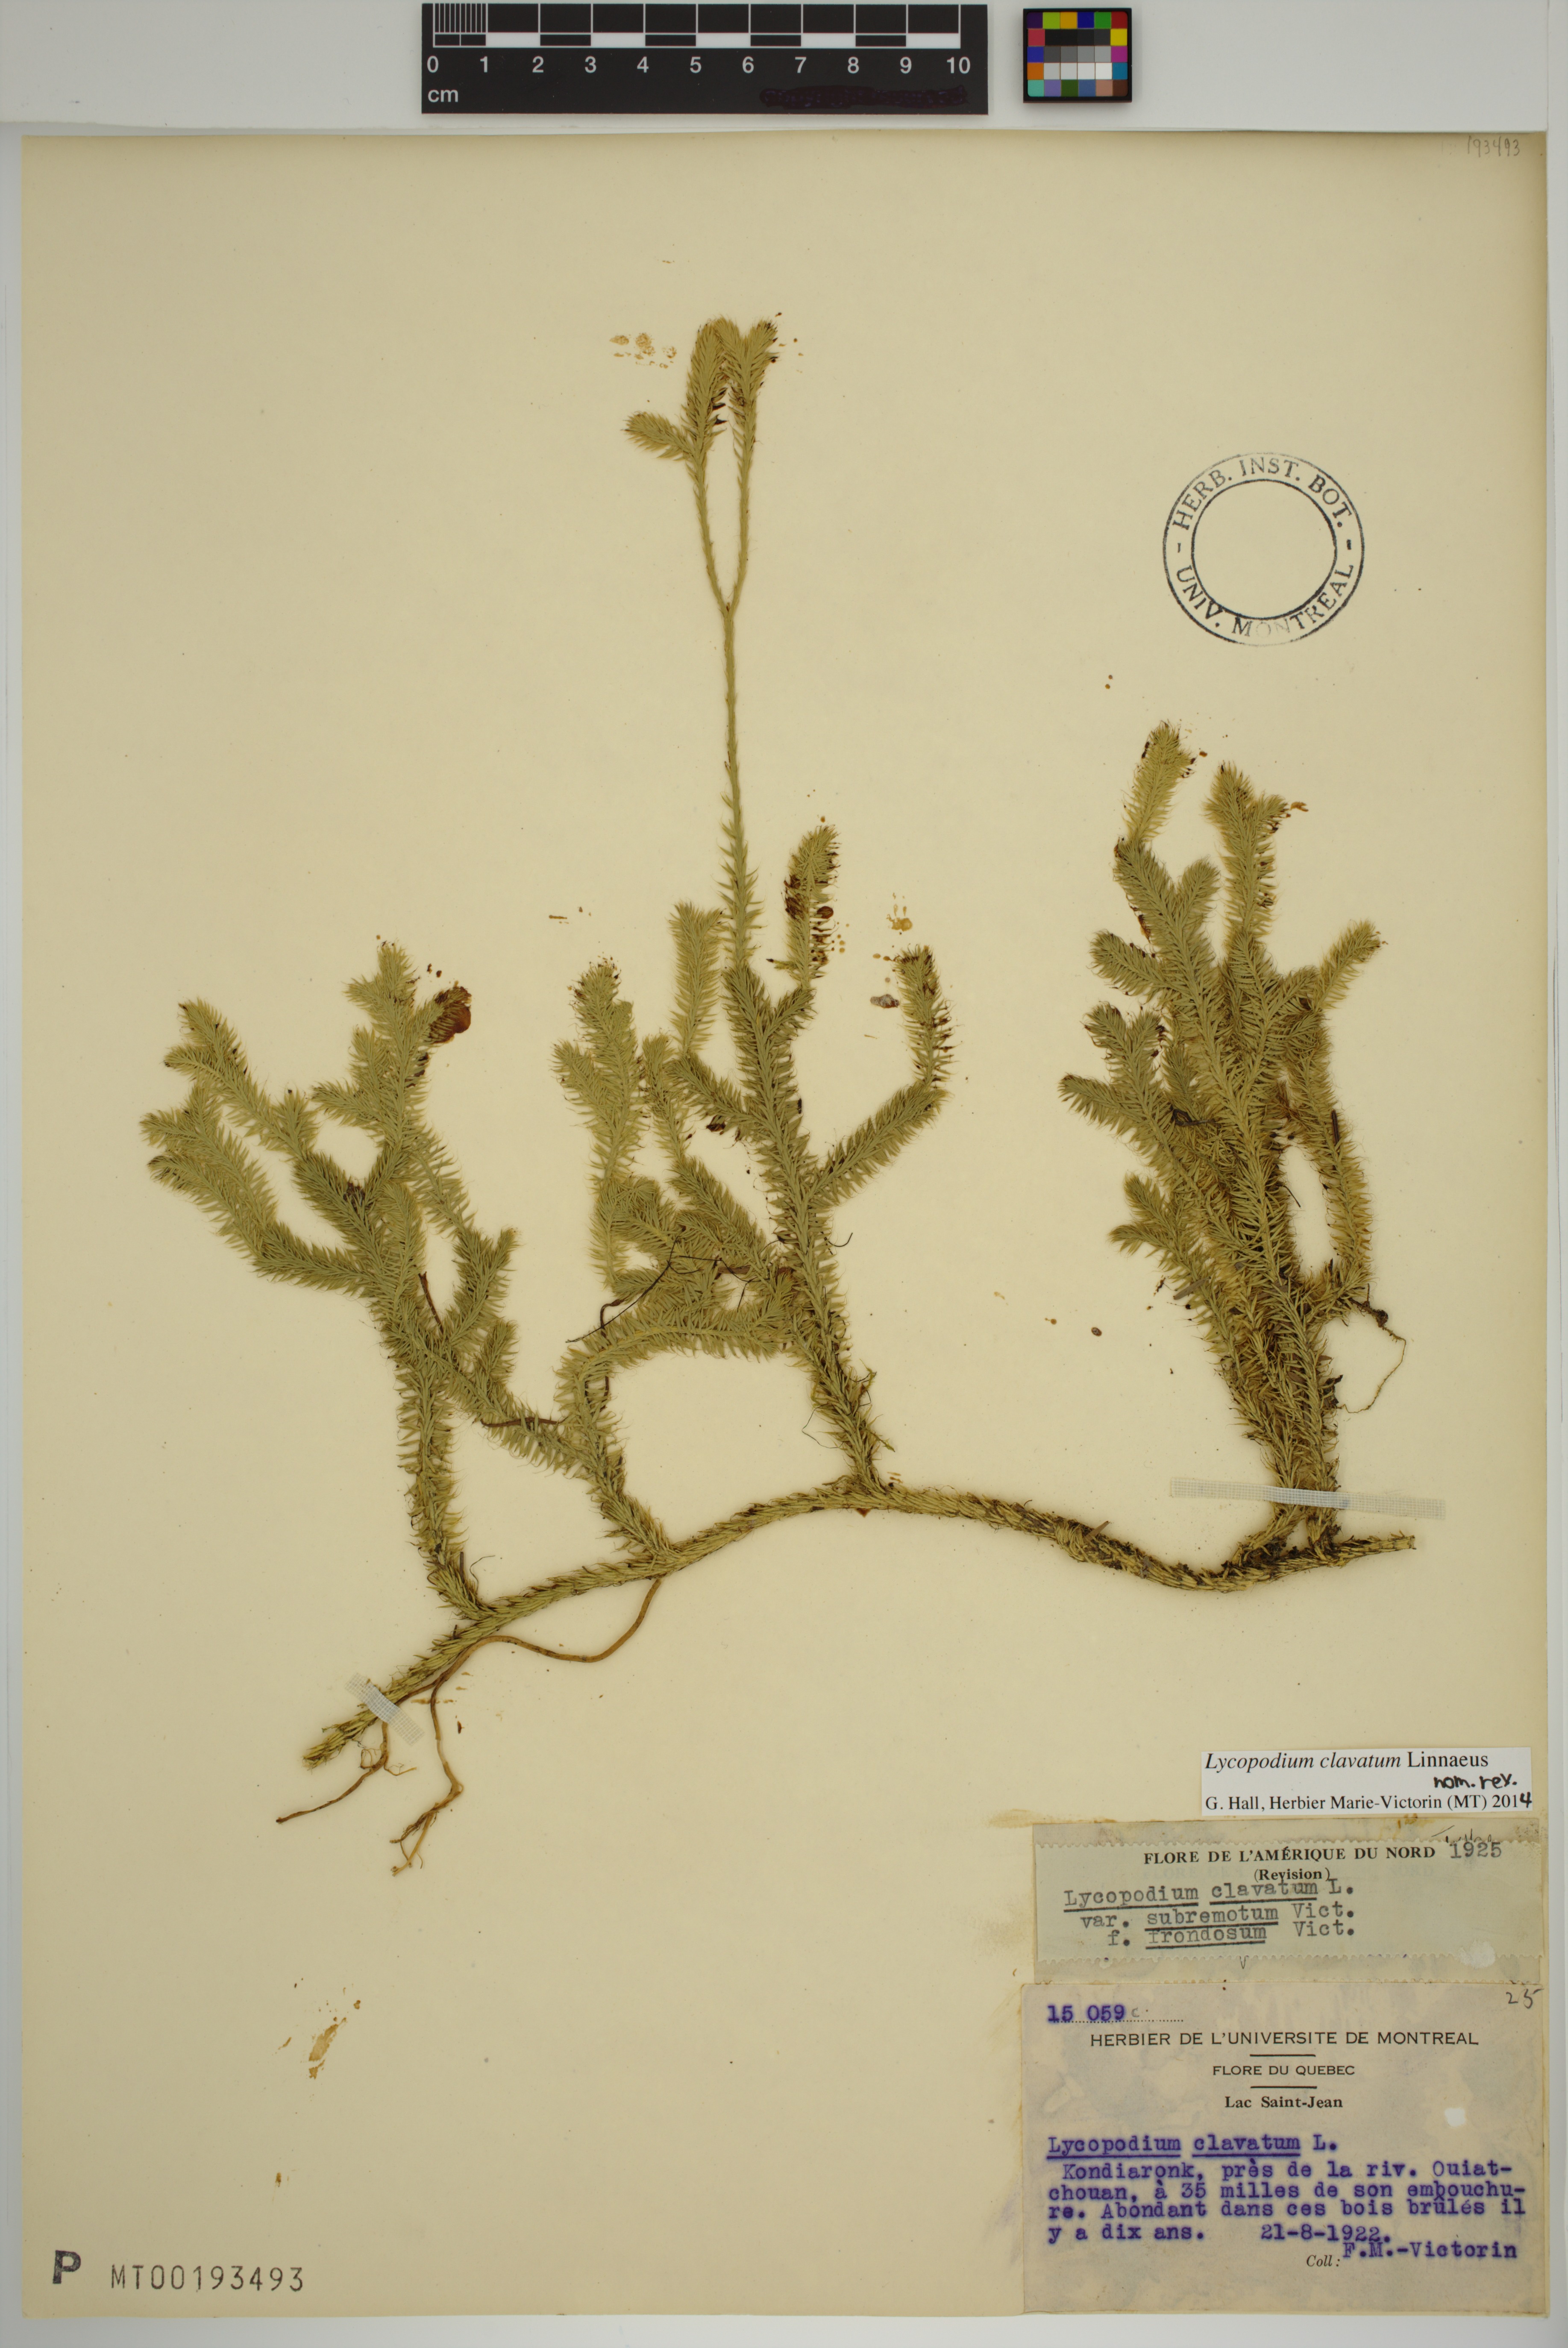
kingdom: Plantae
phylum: Tracheophyta
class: Lycopodiopsida
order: Lycopodiales
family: Lycopodiaceae
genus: Lycopodium
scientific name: Lycopodium clavatum
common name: Stag's-horn clubmoss
